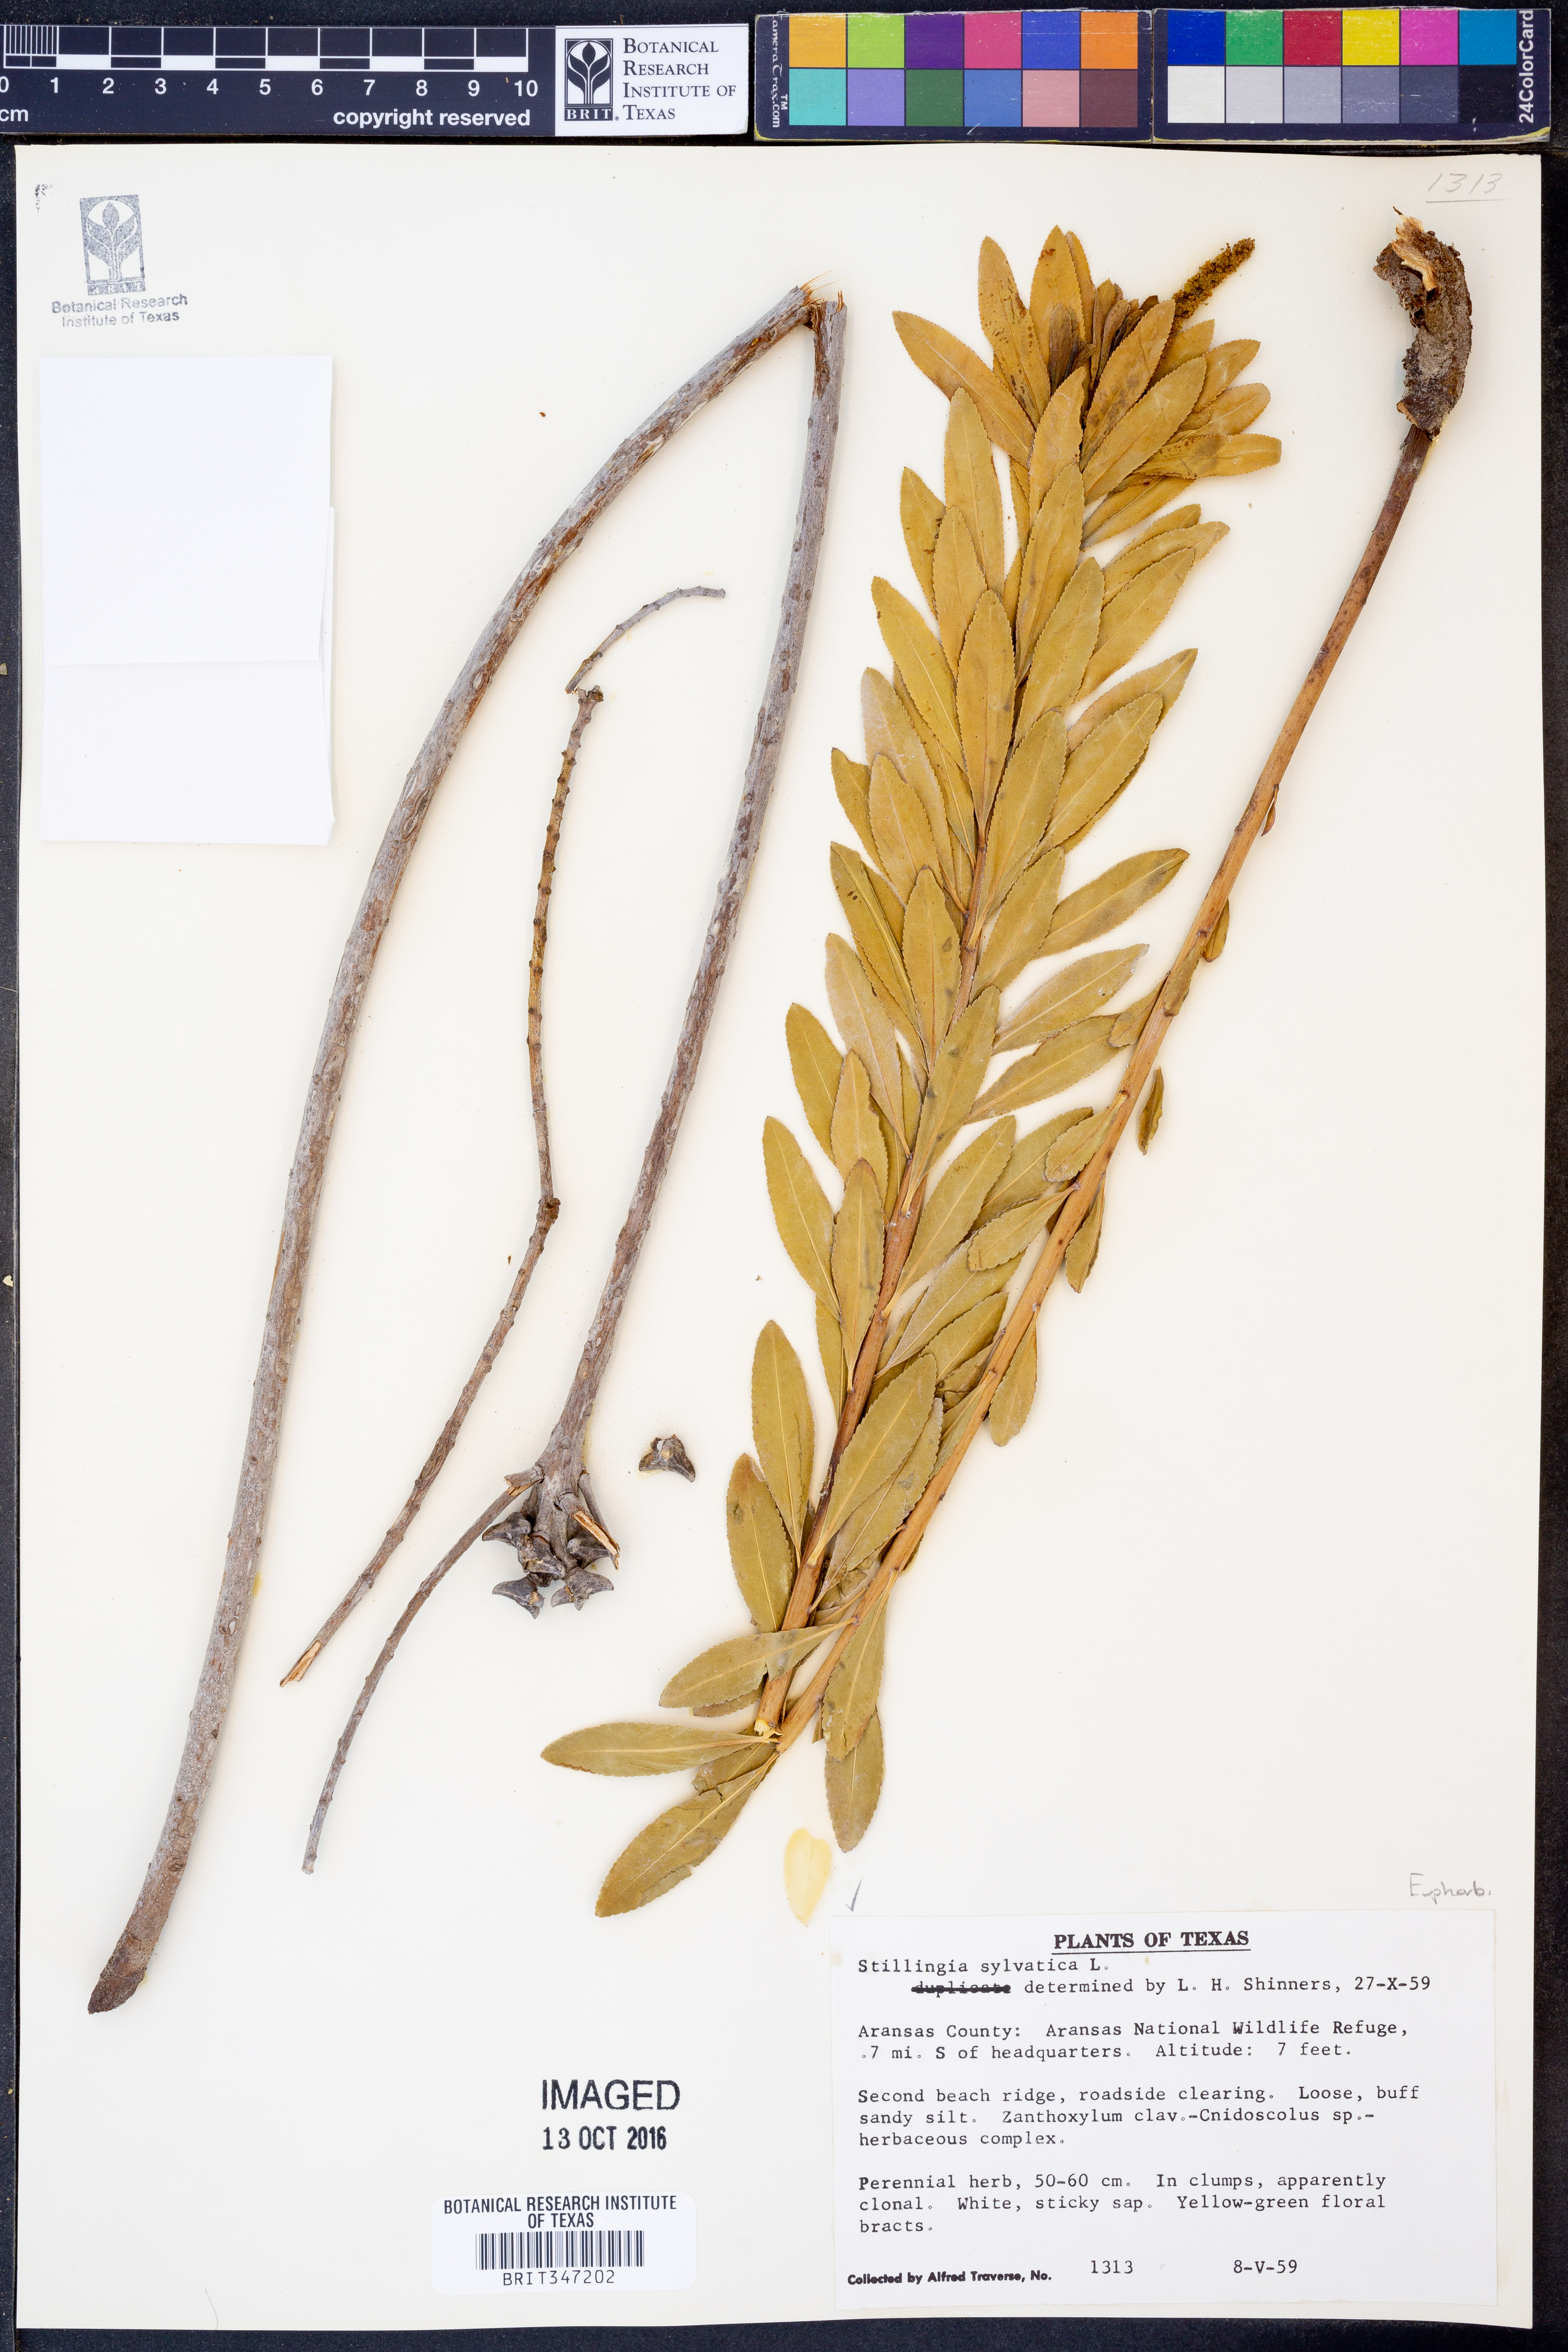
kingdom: Plantae
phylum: Tracheophyta
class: Magnoliopsida
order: Malpighiales
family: Euphorbiaceae
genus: Stillingia
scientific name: Stillingia sylvatica
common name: Queen's-delight
